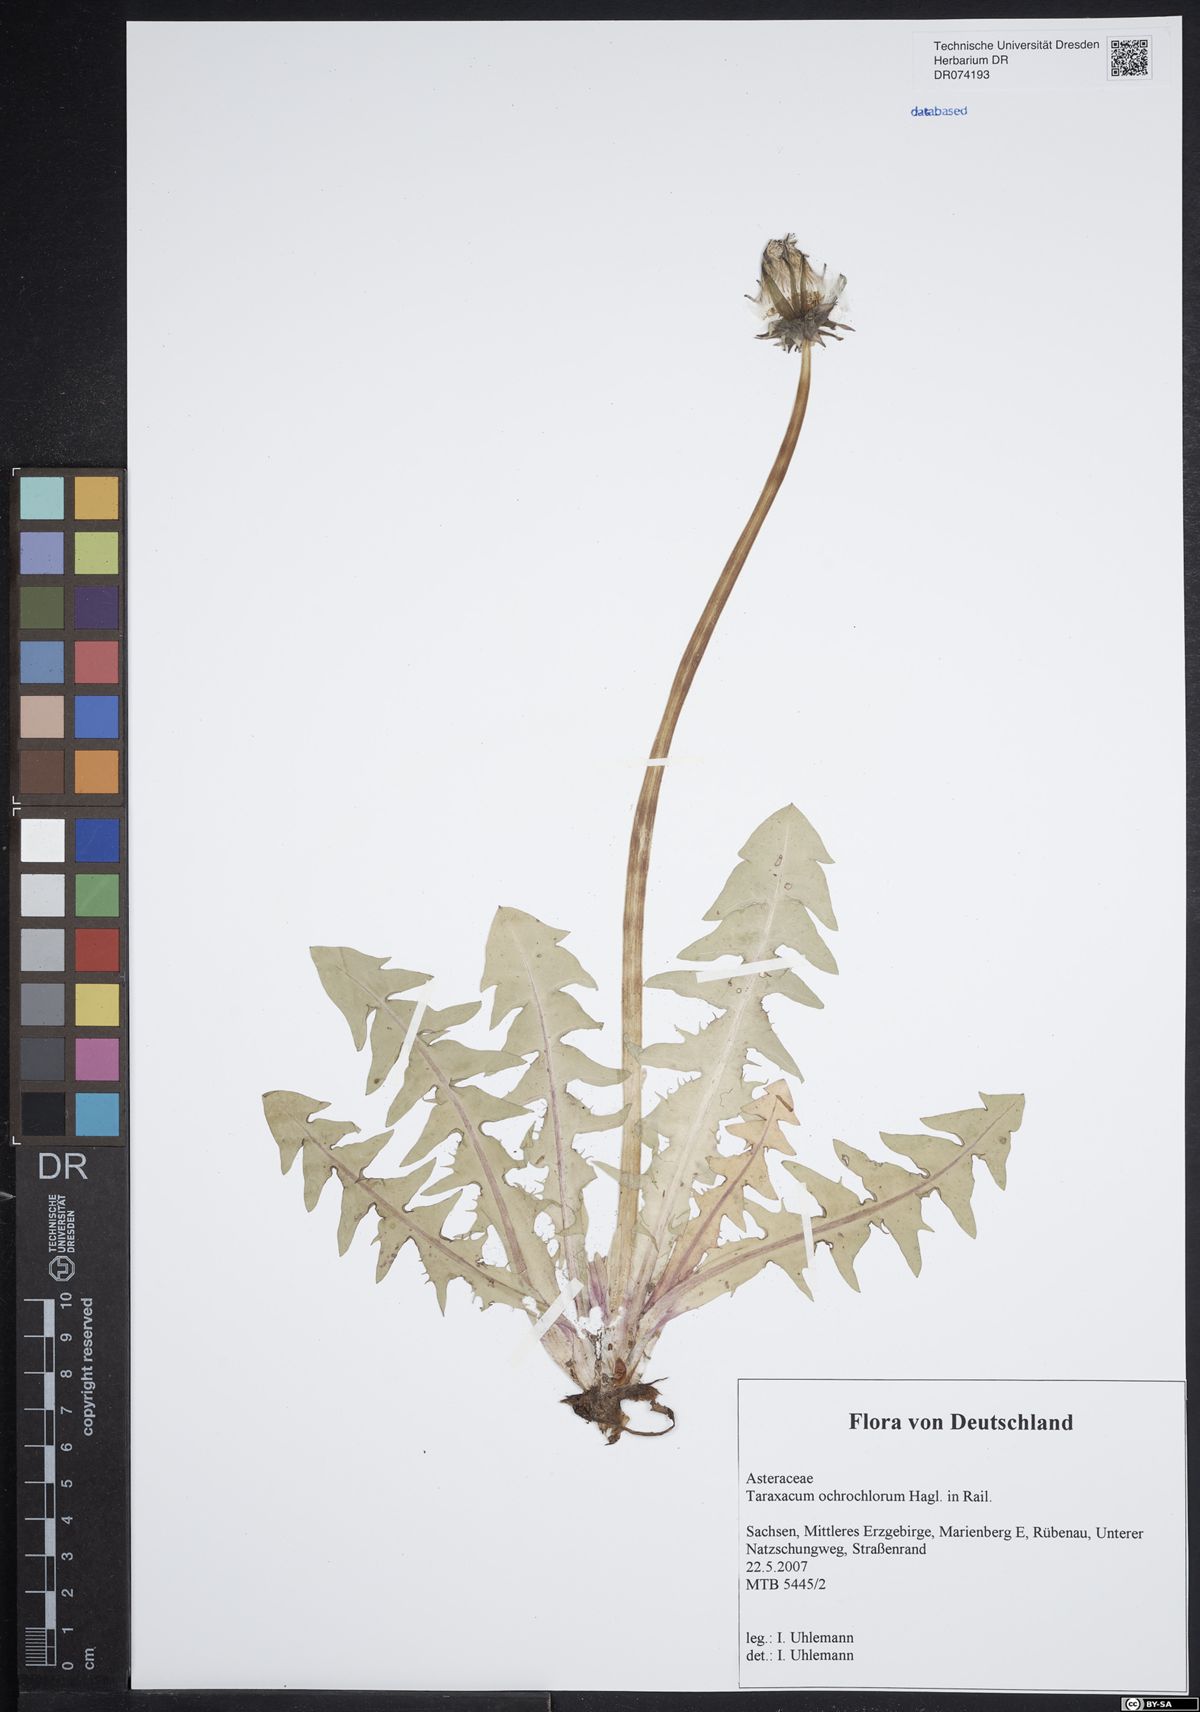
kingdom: Plantae
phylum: Tracheophyta
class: Magnoliopsida
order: Asterales
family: Asteraceae
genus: Taraxacum
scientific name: Taraxacum ochrochlorum
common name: Winged dandelion
